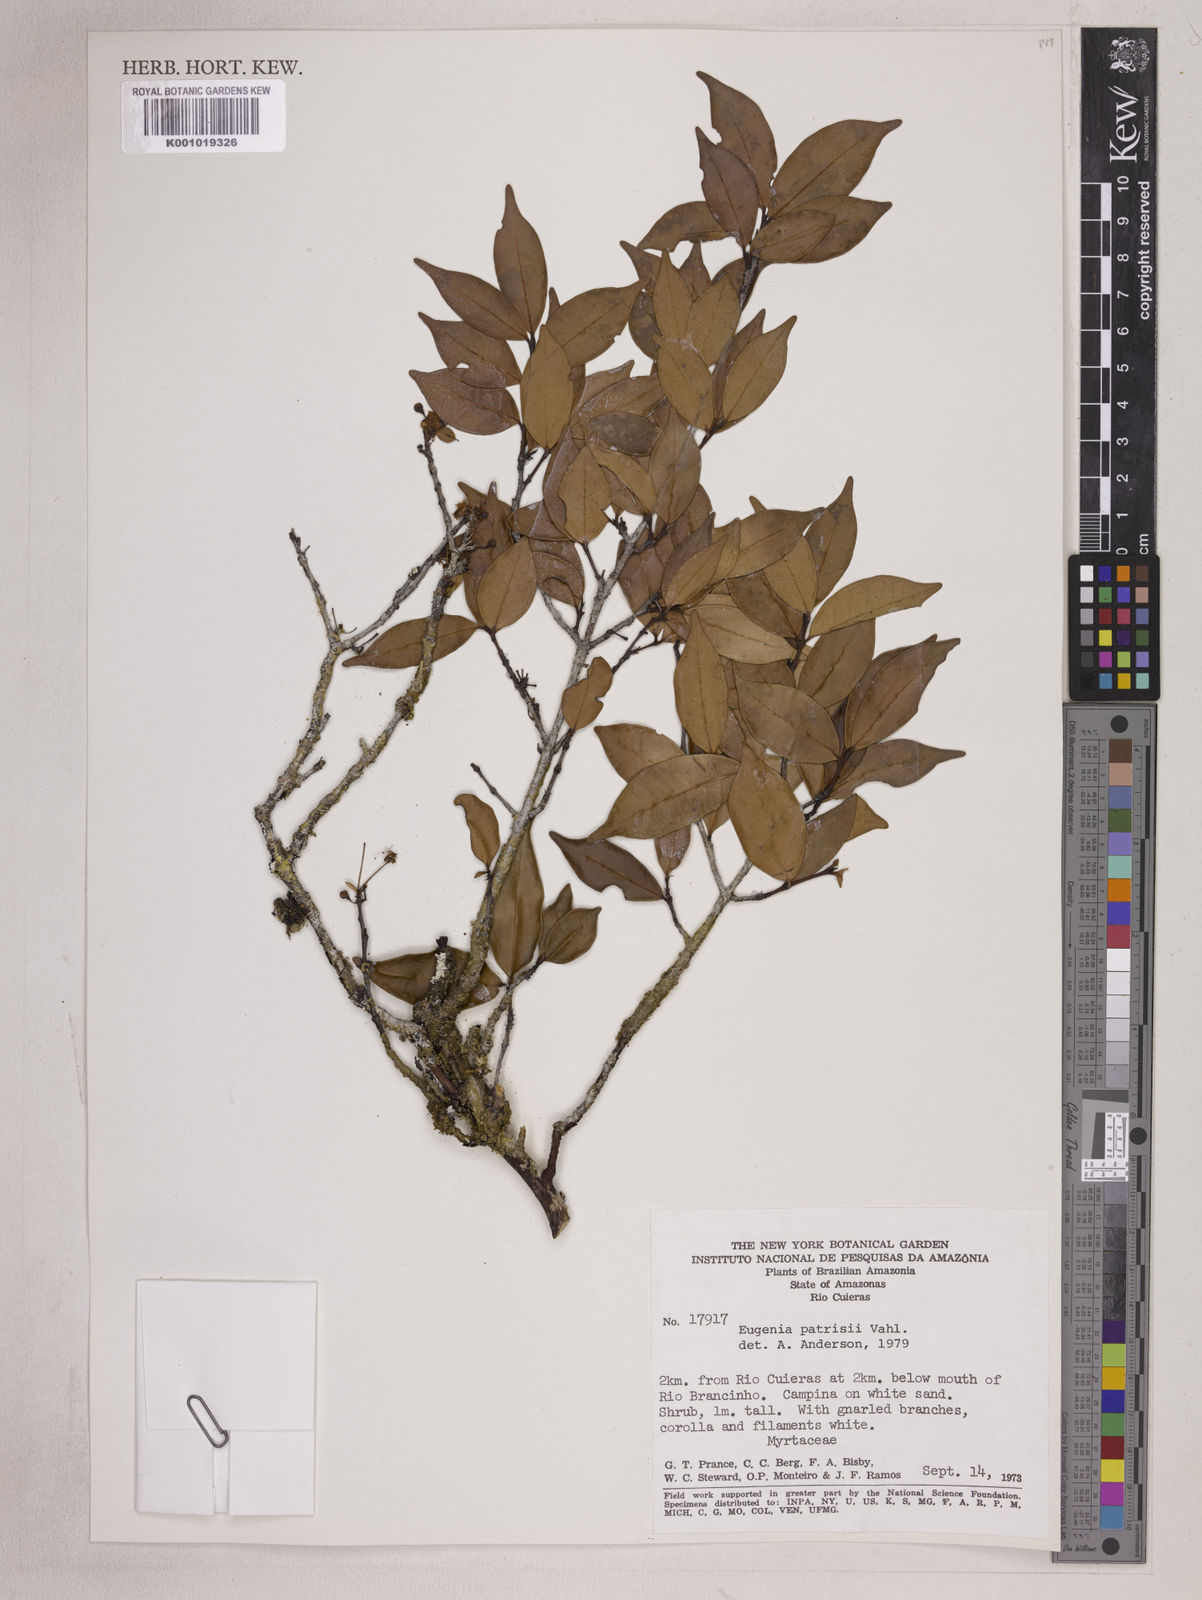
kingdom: Plantae
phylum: Tracheophyta
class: Magnoliopsida
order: Myrtales
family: Myrtaceae
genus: Eugenia
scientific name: Eugenia patrisii
